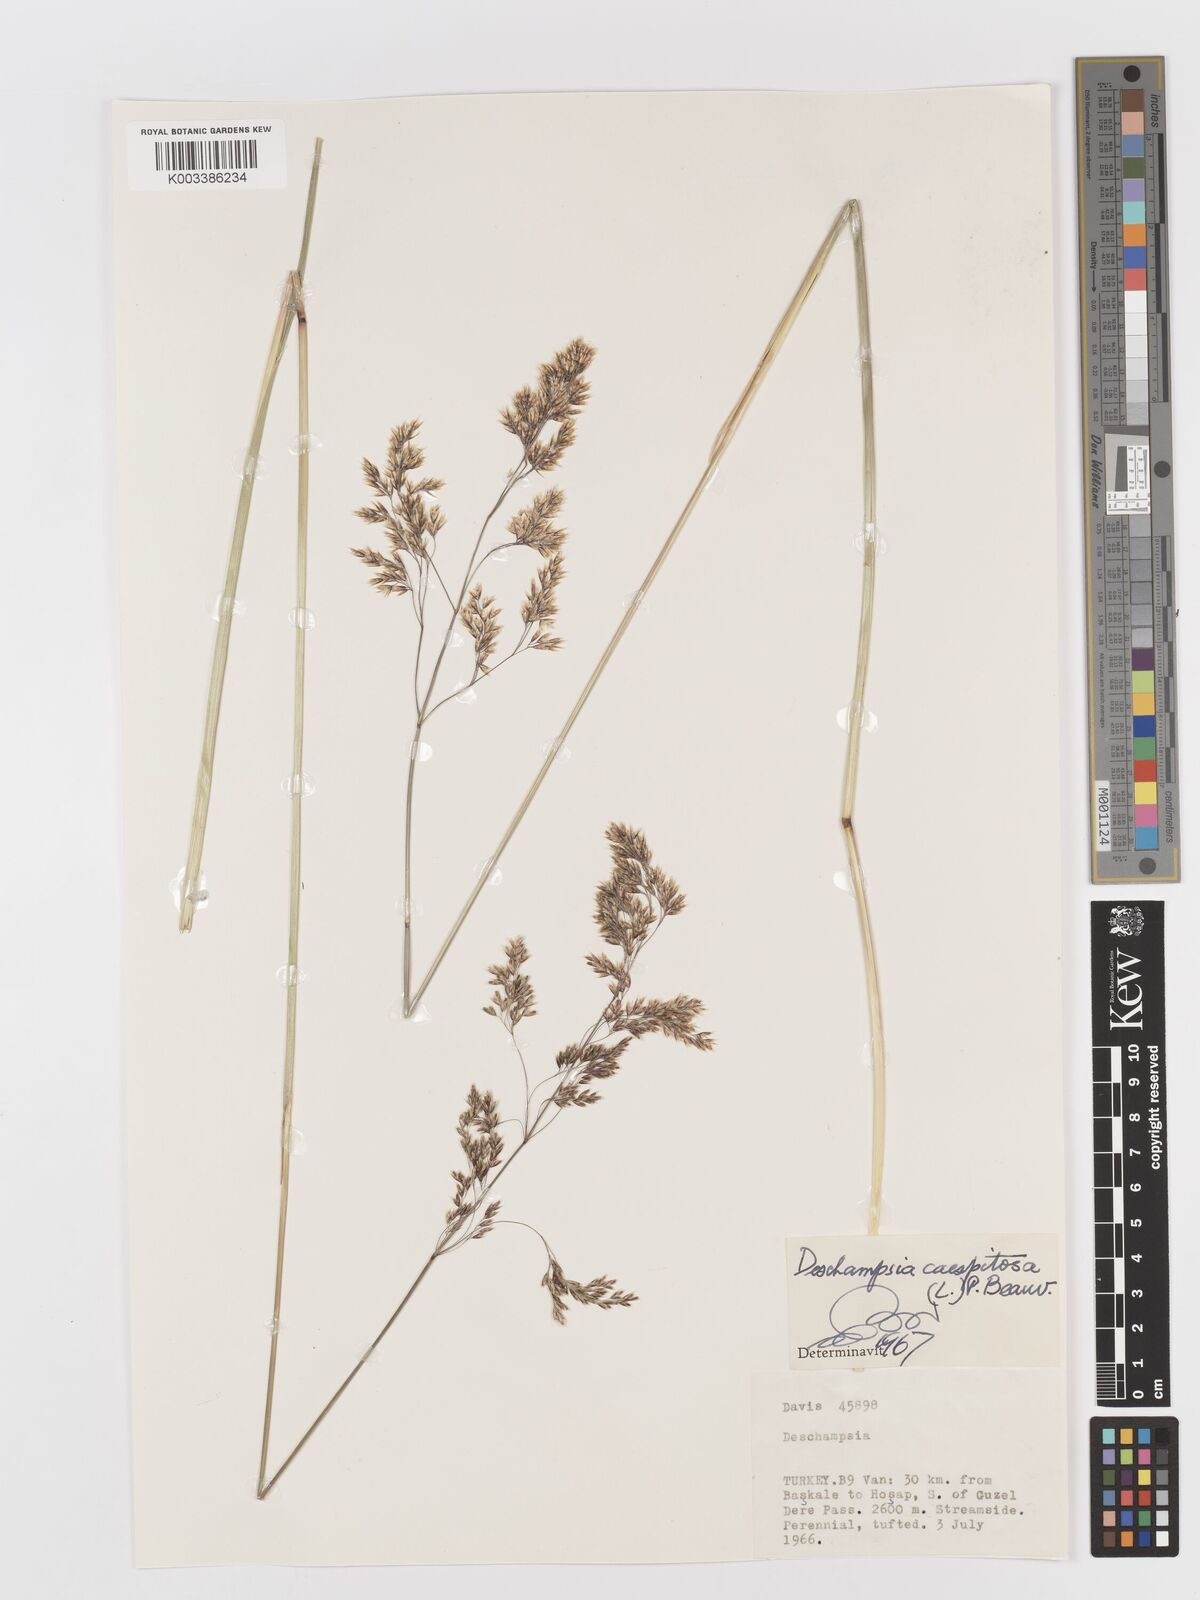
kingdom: Plantae
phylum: Tracheophyta
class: Liliopsida
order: Poales
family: Poaceae
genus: Deschampsia
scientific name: Deschampsia cespitosa
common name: Tufted hair-grass
